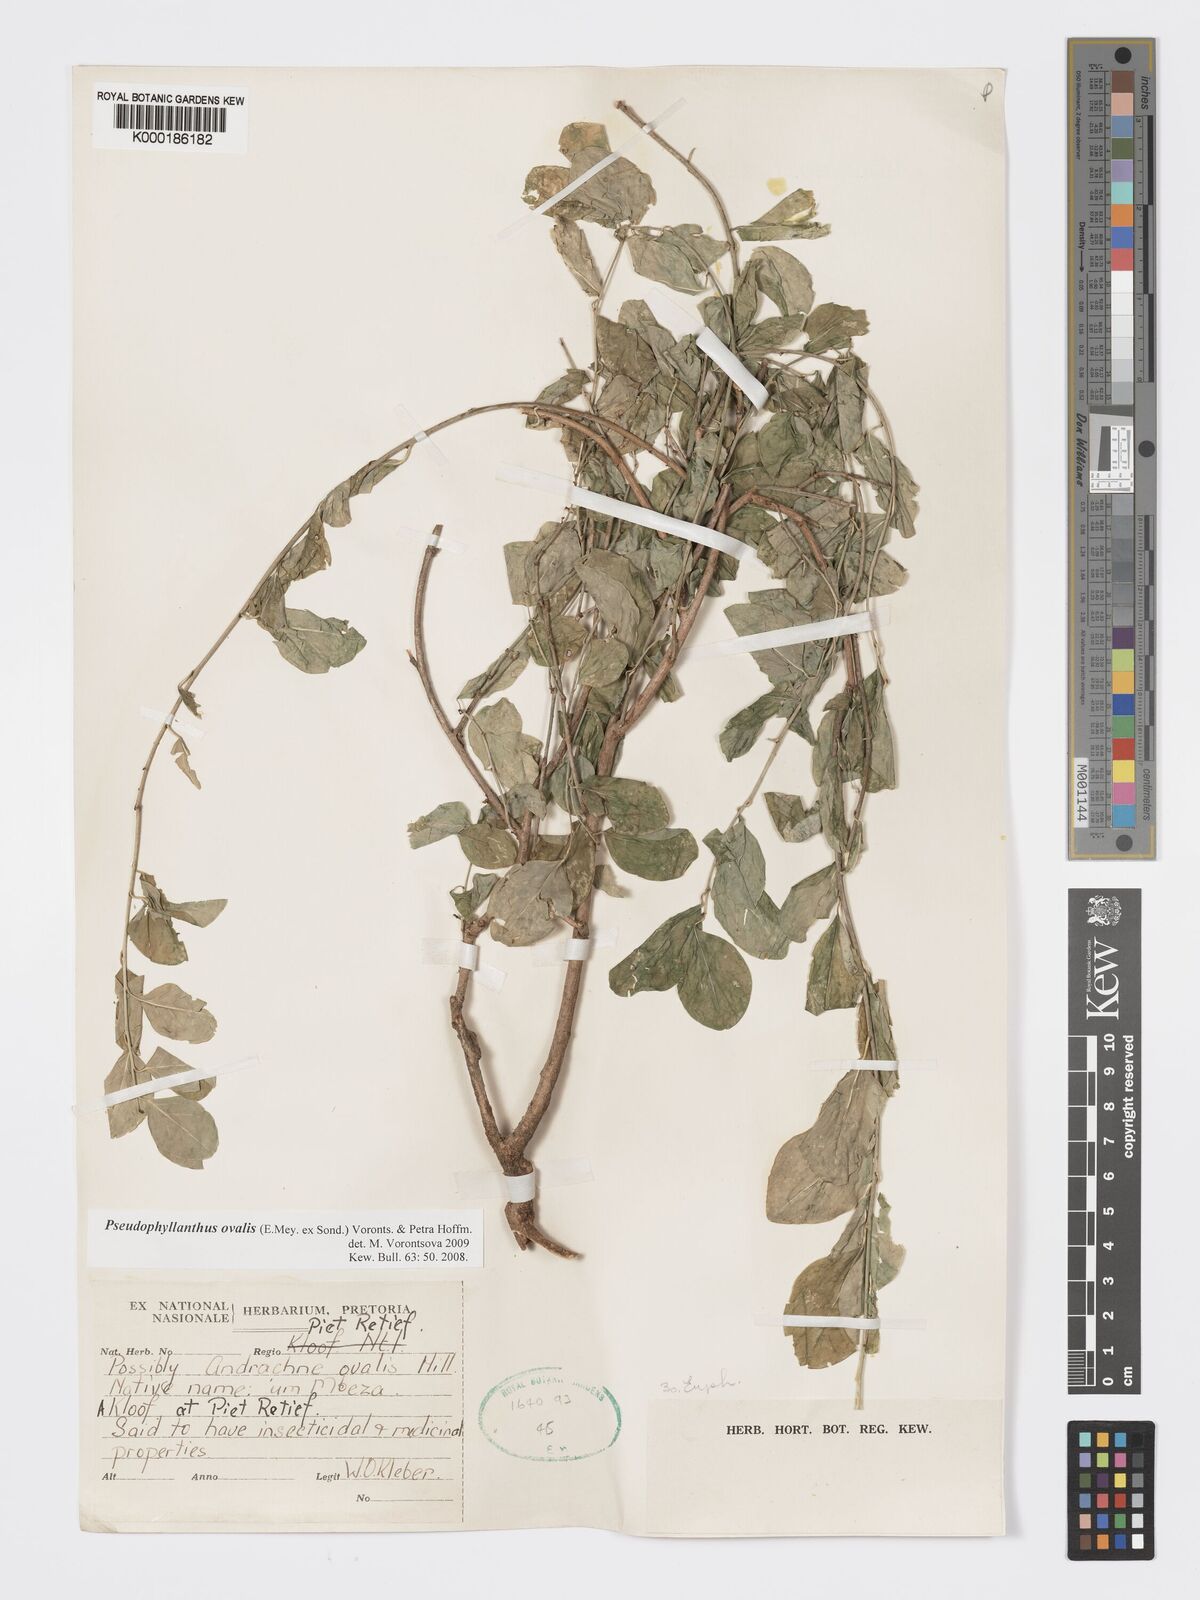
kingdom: Plantae
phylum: Tracheophyta
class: Magnoliopsida
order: Malpighiales
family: Phyllanthaceae
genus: Pseudophyllanthus
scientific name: Pseudophyllanthus ovalis
